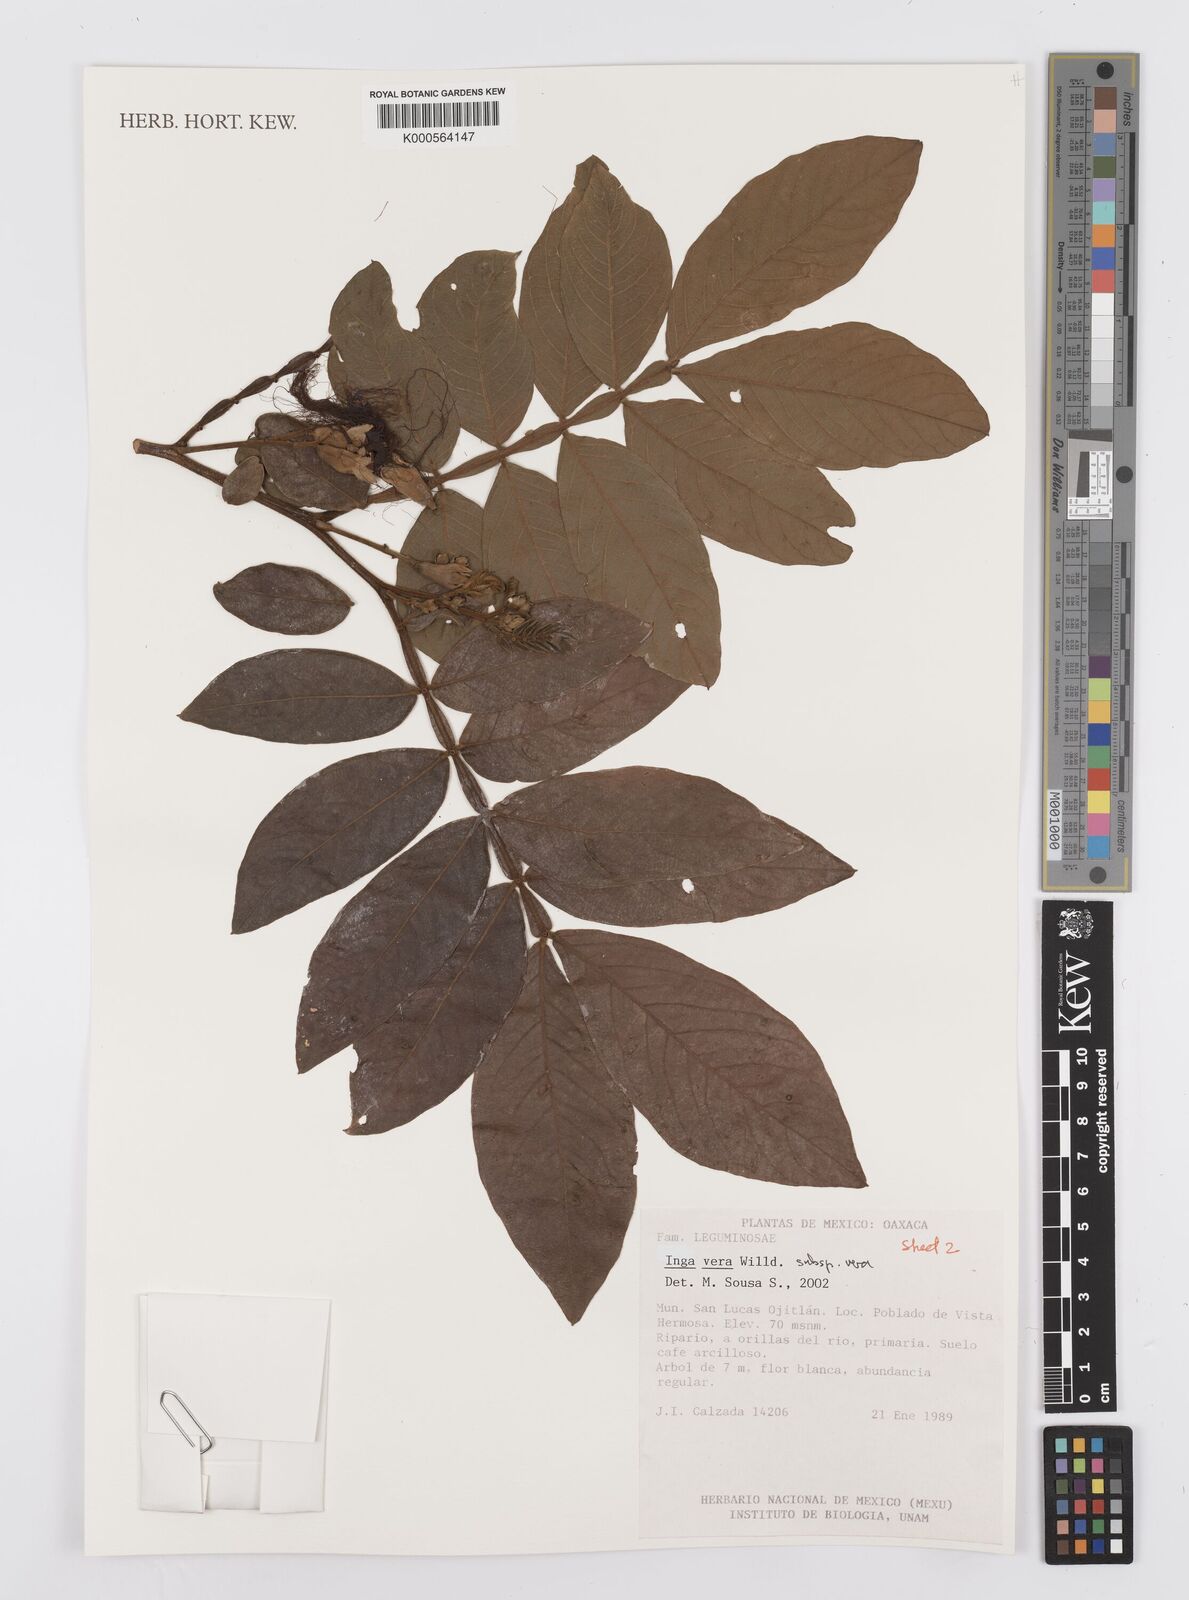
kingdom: Plantae
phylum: Tracheophyta
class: Magnoliopsida
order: Fabales
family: Fabaceae
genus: Inga
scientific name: Inga vera
